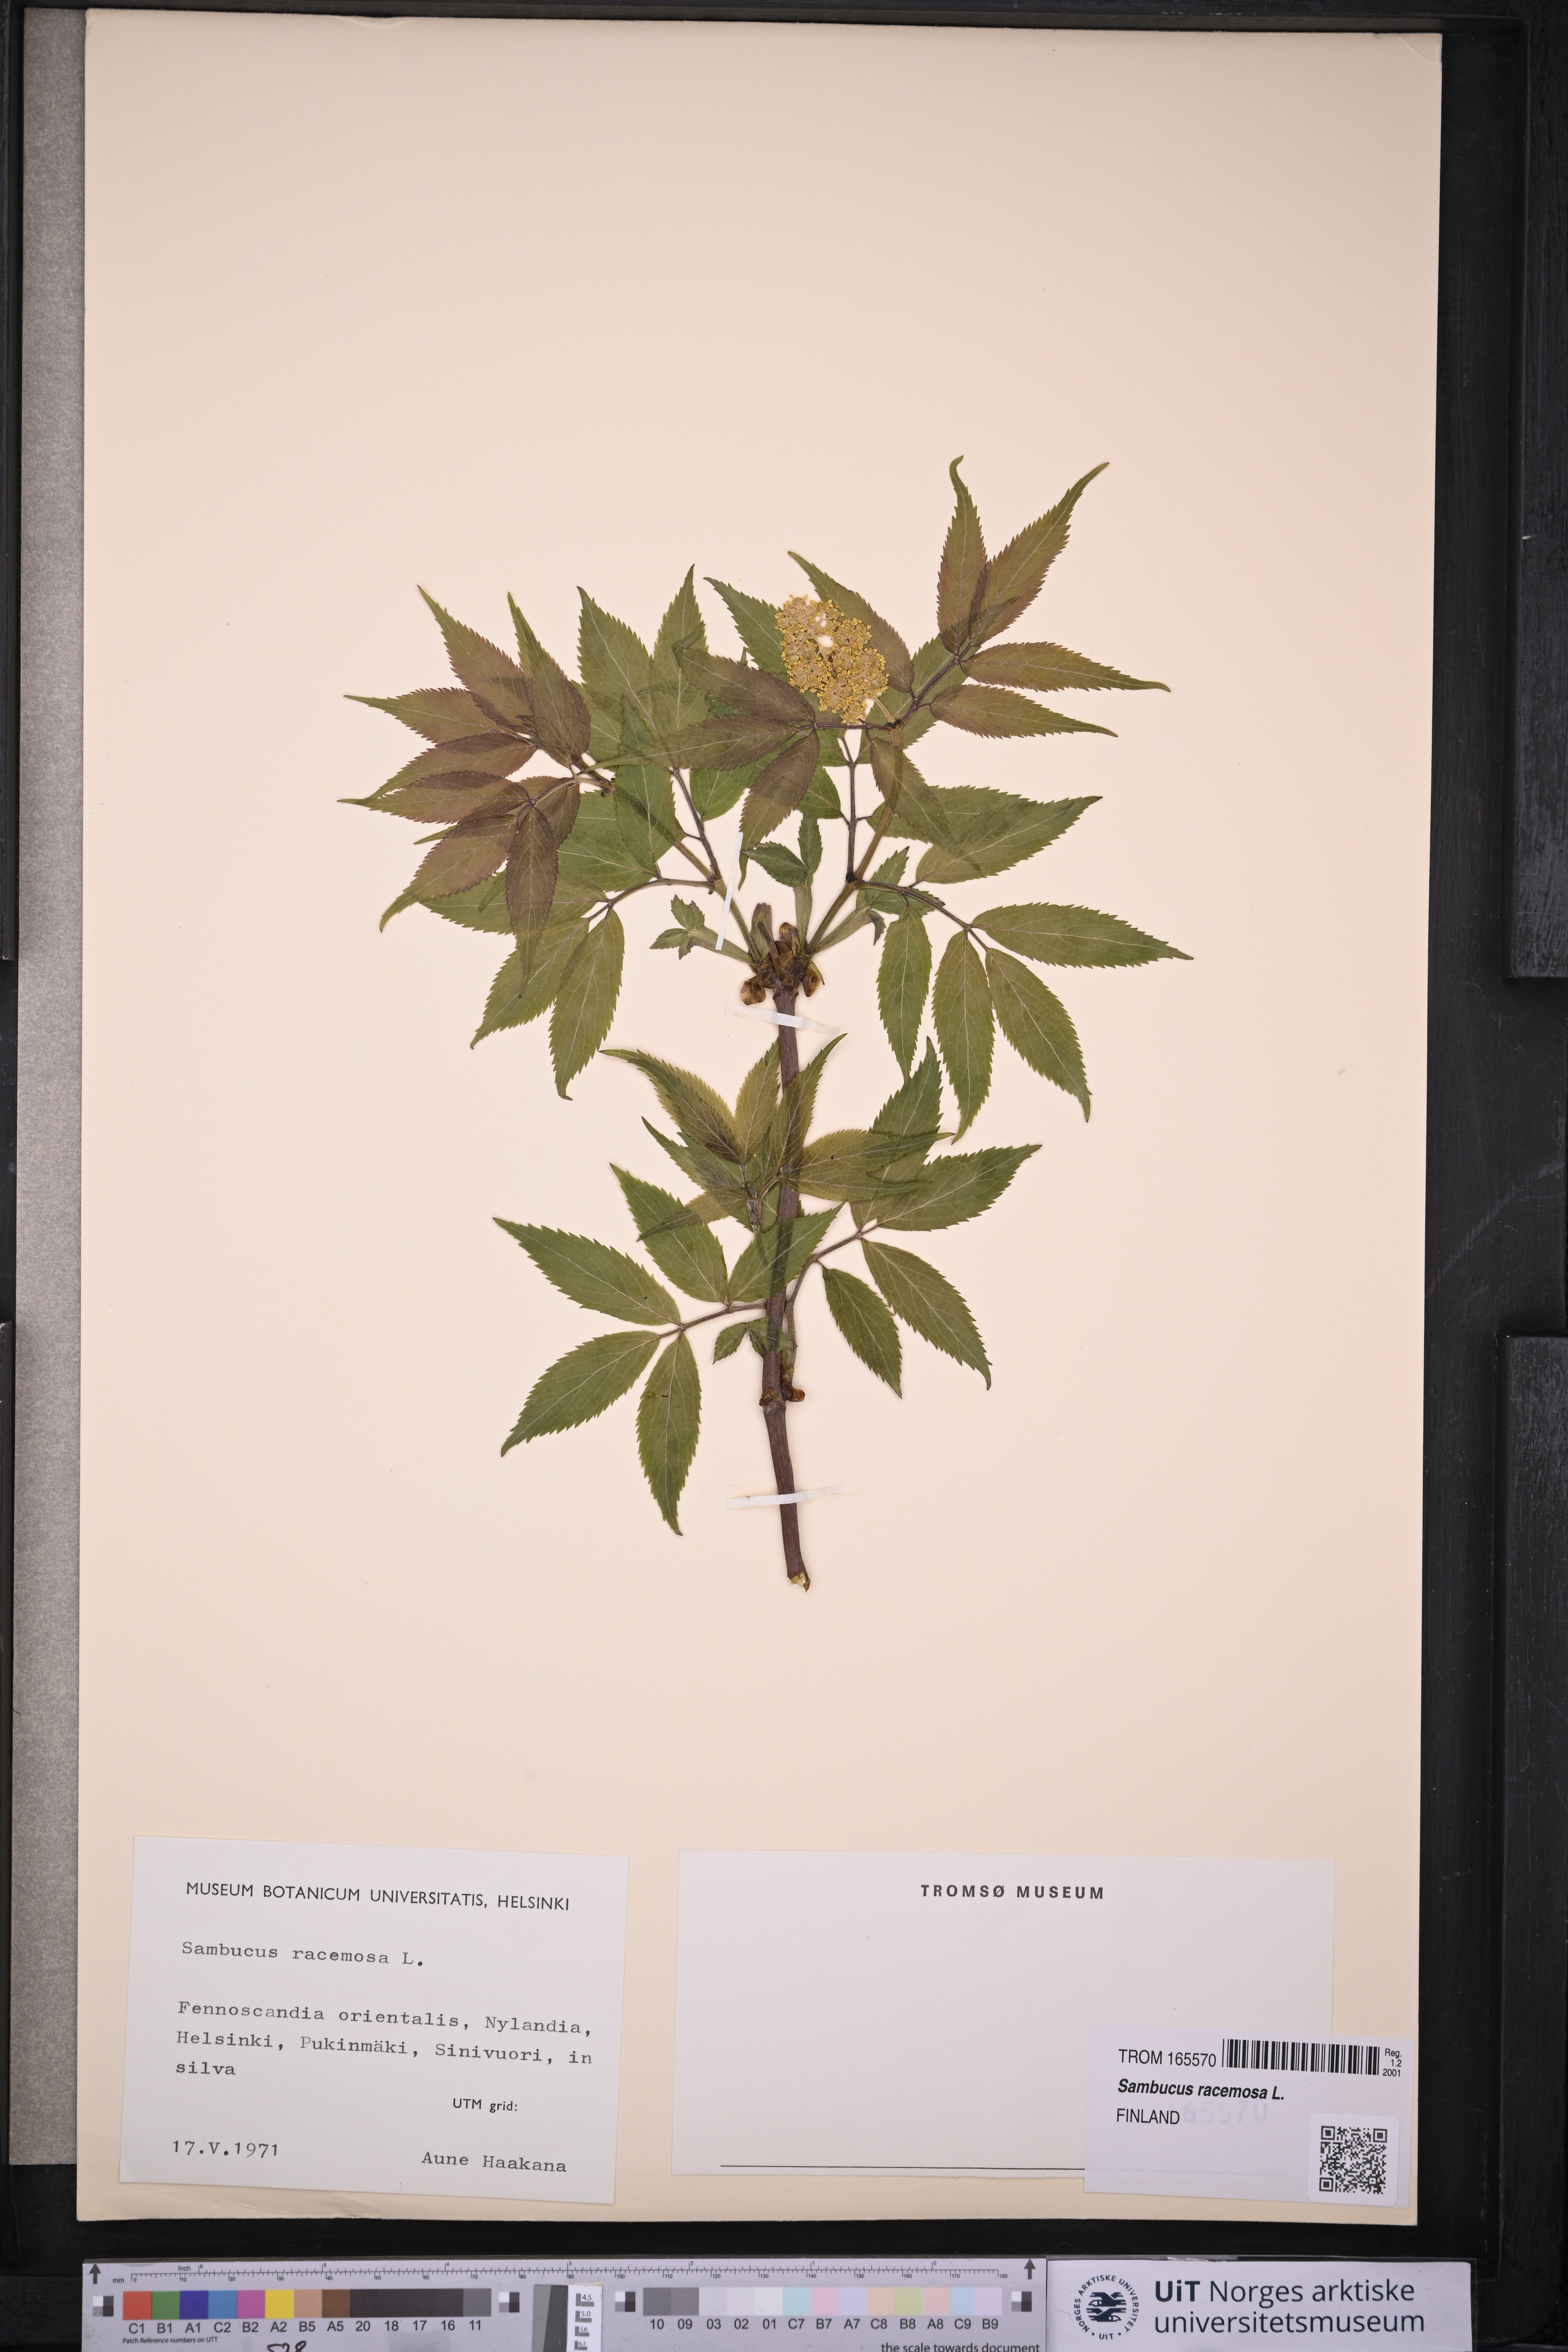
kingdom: Plantae
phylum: Tracheophyta
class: Magnoliopsida
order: Dipsacales
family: Viburnaceae
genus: Sambucus
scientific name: Sambucus racemosa
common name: Red-berried elder
